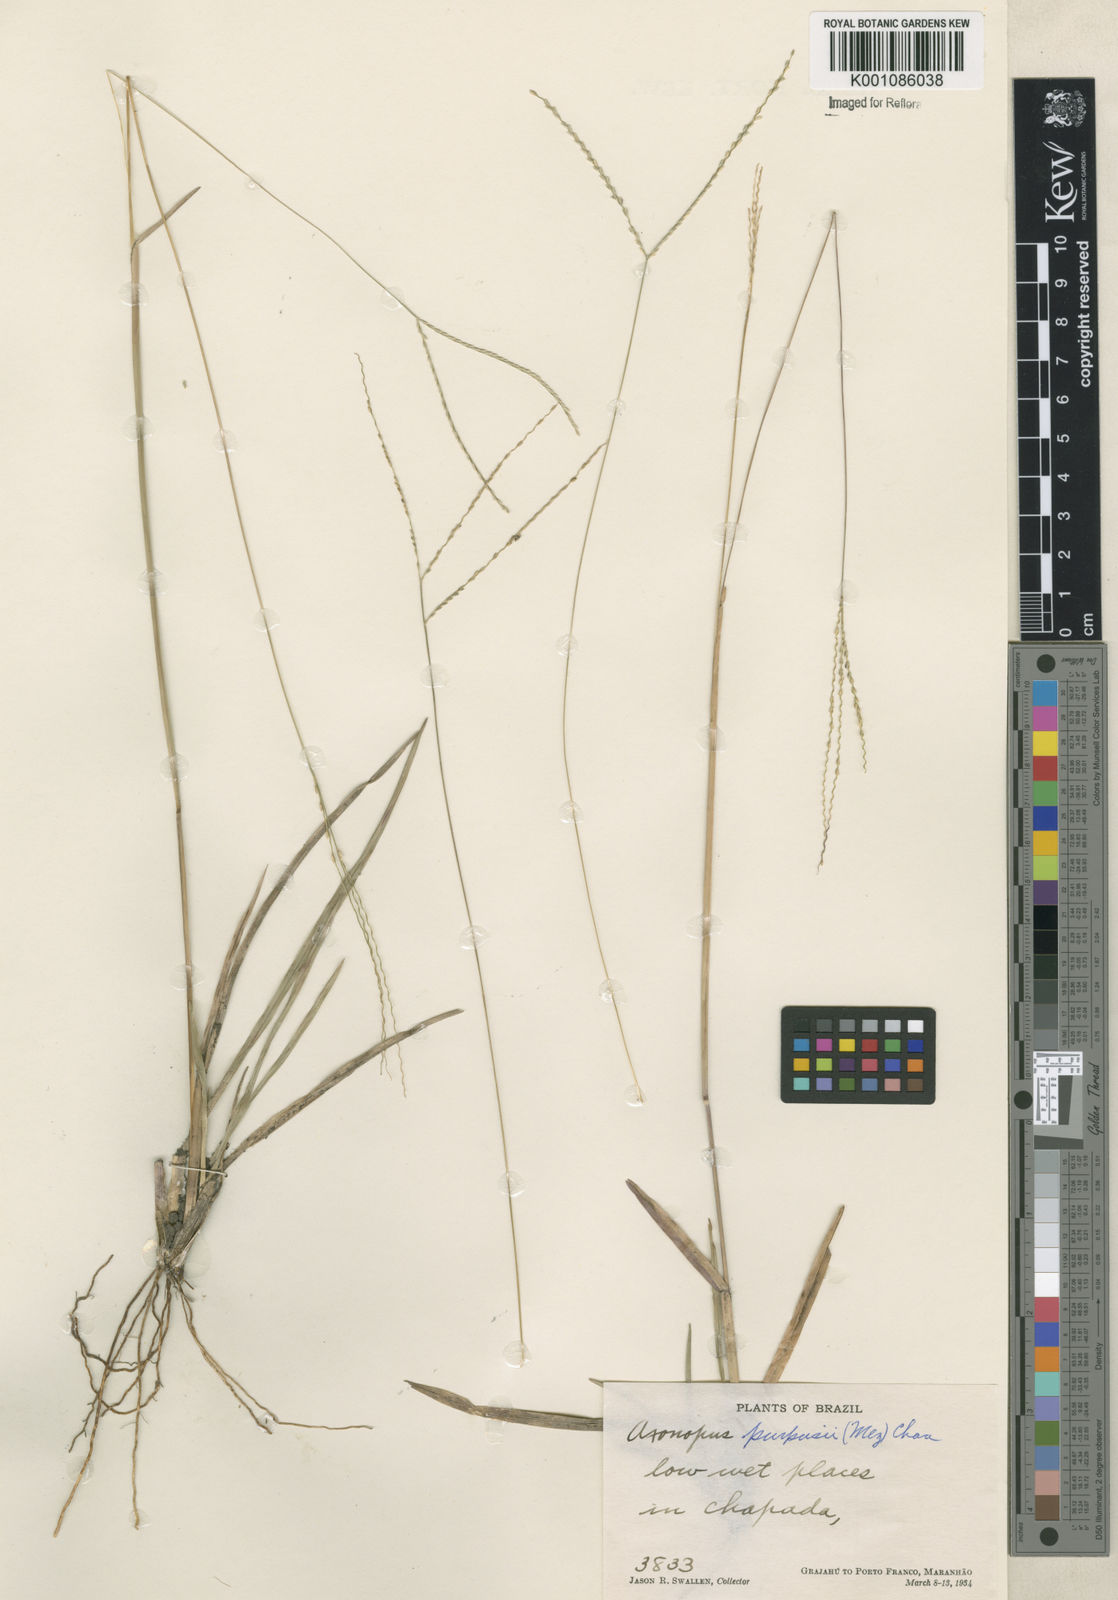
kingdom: Plantae
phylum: Tracheophyta
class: Liliopsida
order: Poales
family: Poaceae
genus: Axonopus
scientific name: Axonopus purpusii
